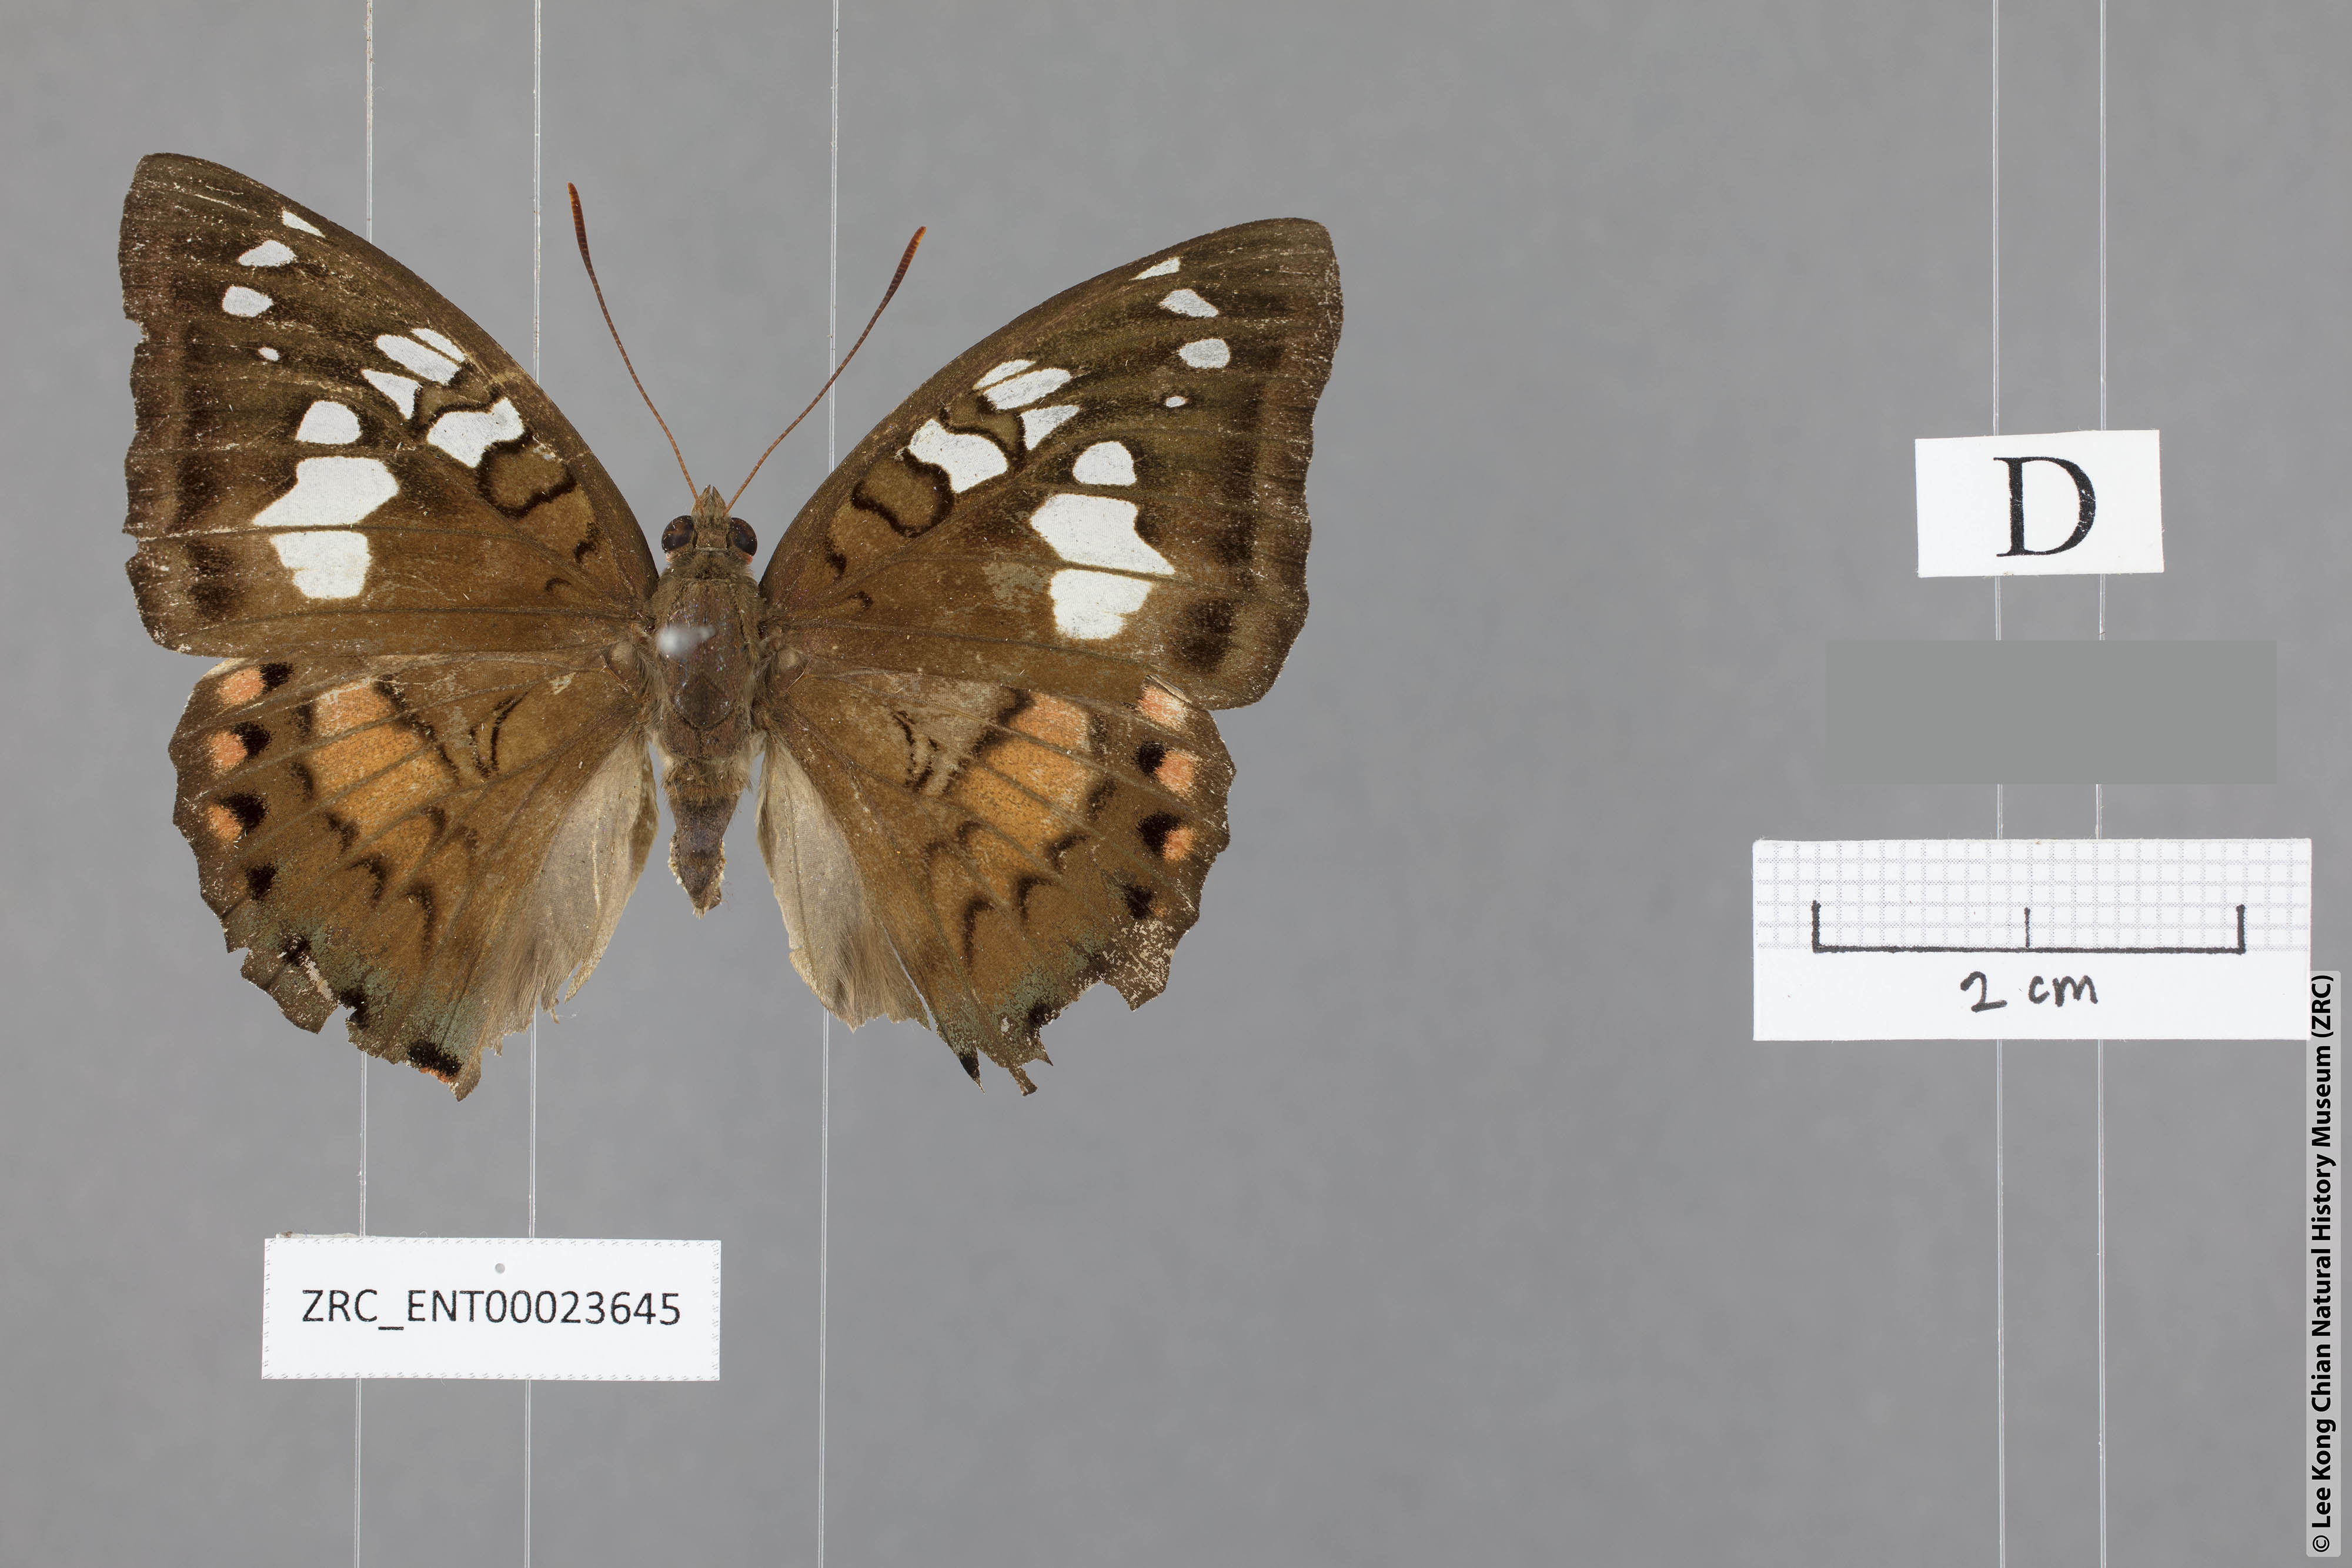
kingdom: Animalia
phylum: Arthropoda
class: Insecta
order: Lepidoptera
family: Nymphalidae
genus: Euthalia
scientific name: Euthalia djata
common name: Red-spot baron
